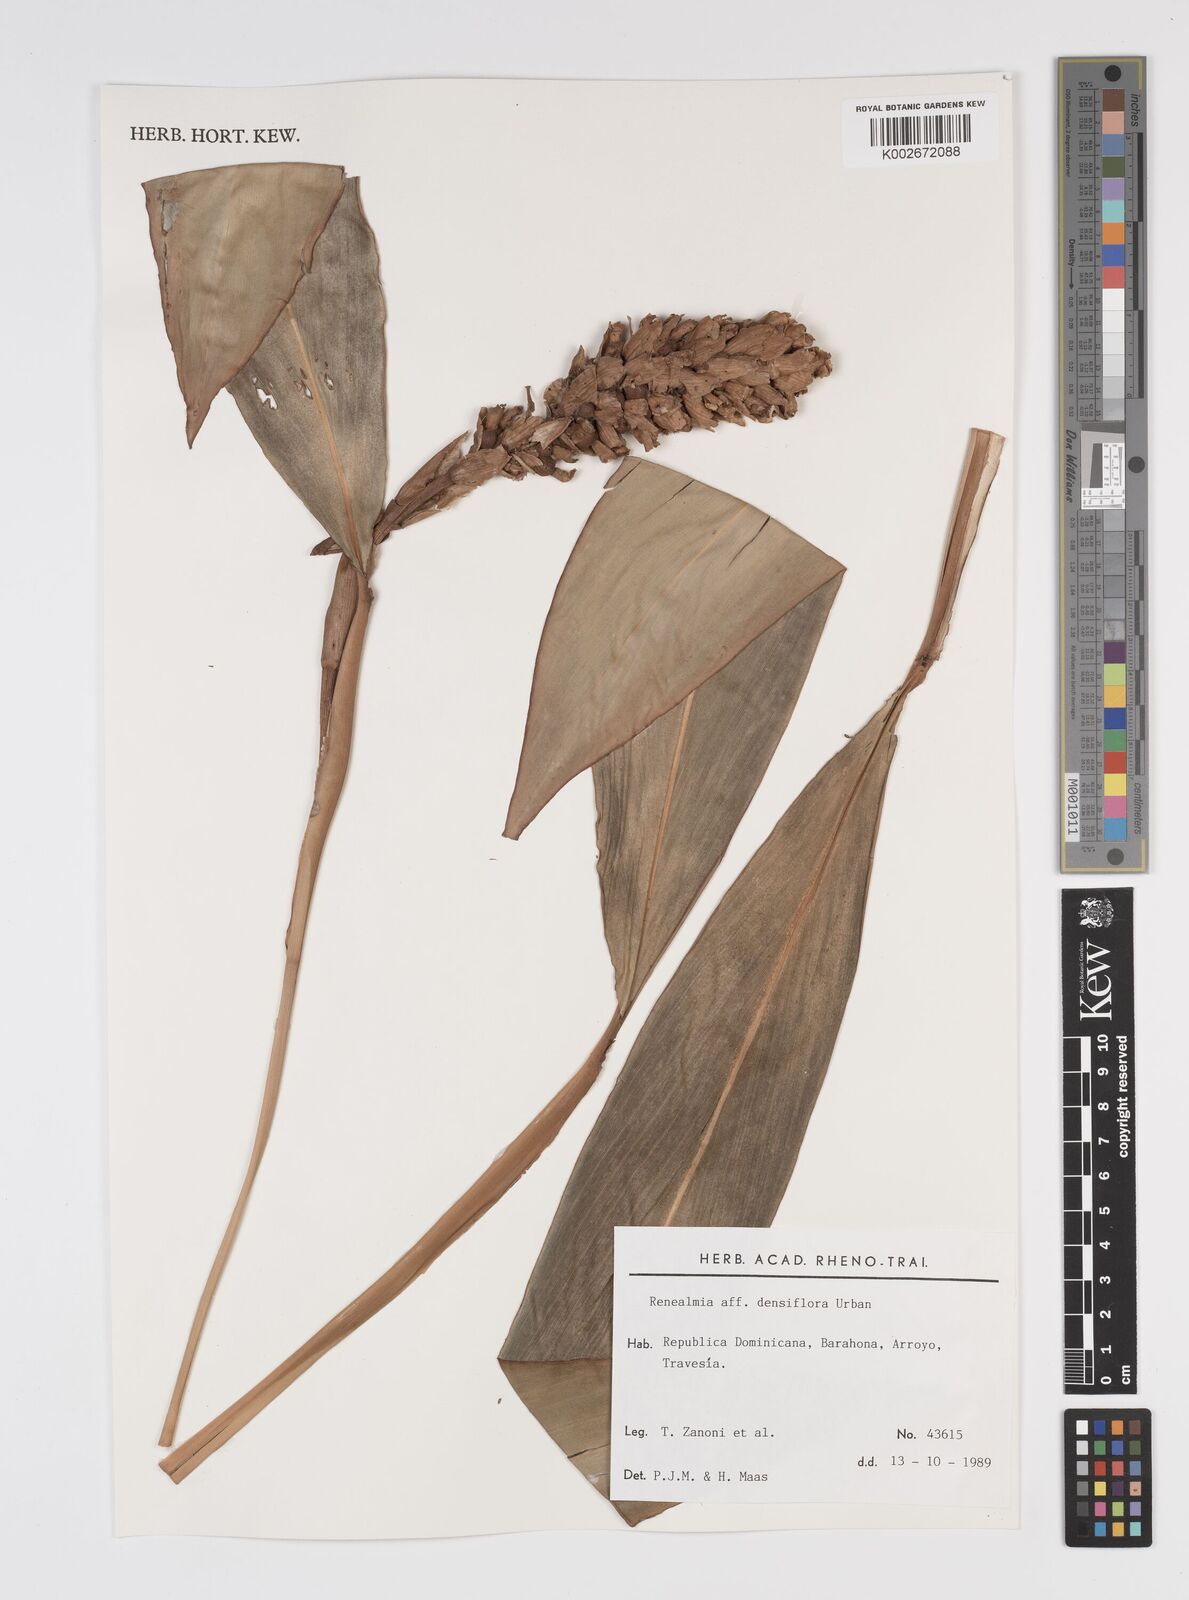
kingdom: Plantae
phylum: Tracheophyta
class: Liliopsida
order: Zingiberales
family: Zingiberaceae
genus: Renealmia
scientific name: Renealmia densiflora
